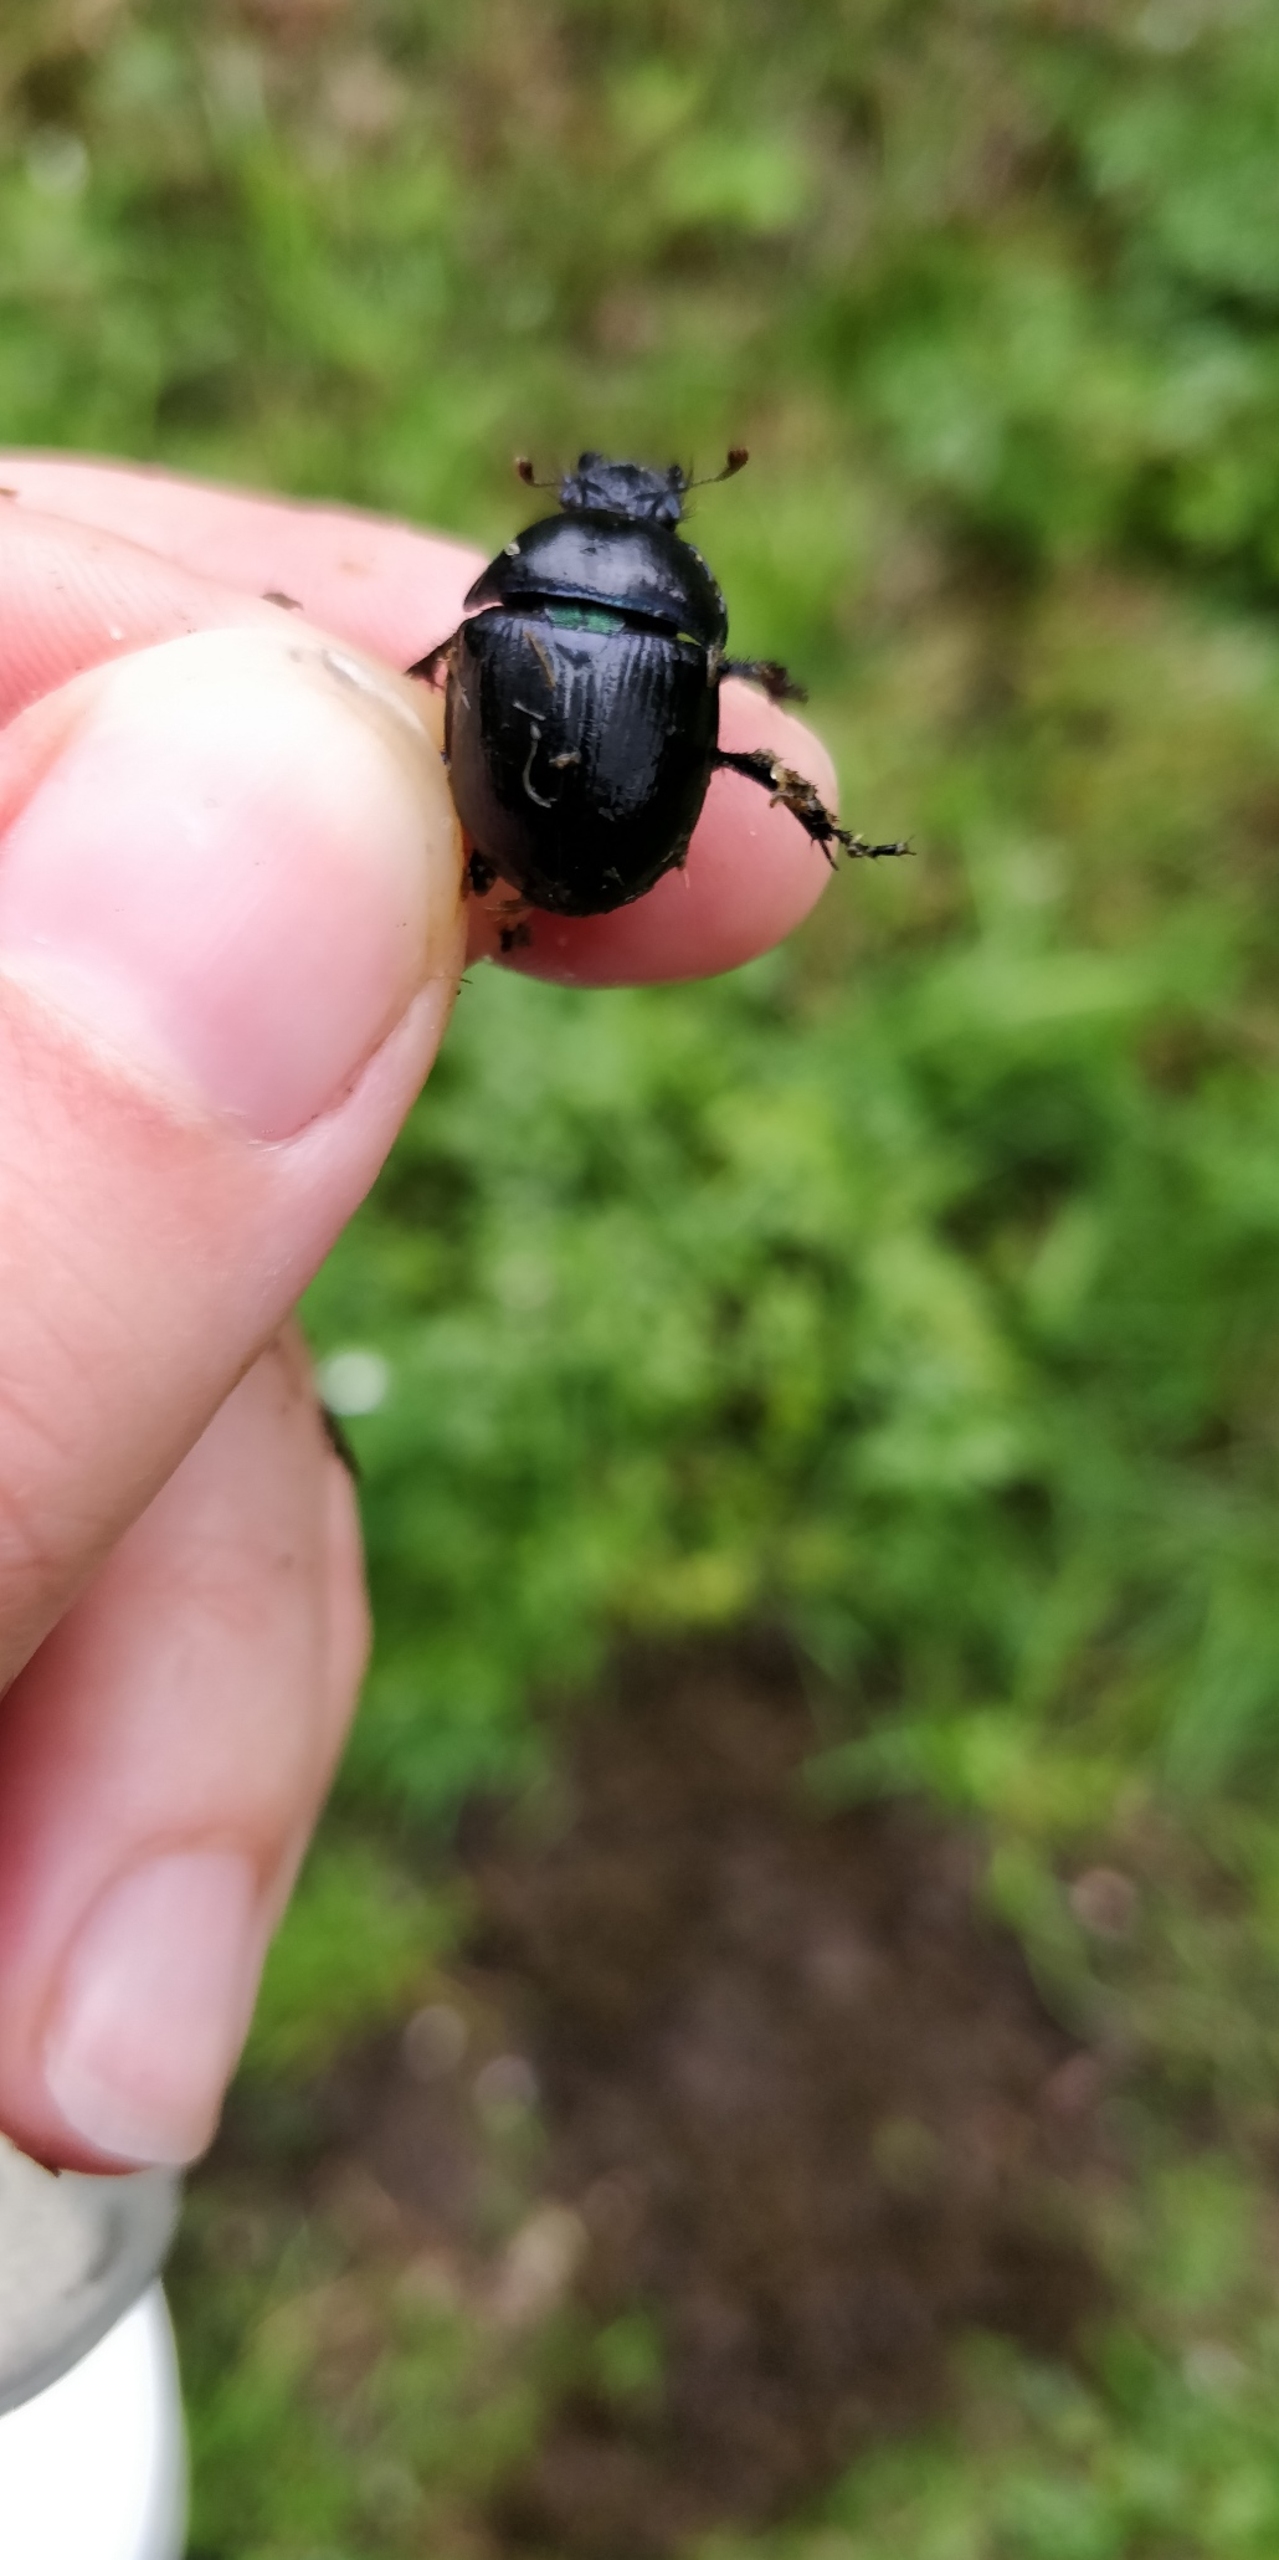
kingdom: Animalia
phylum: Arthropoda
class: Insecta
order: Coleoptera
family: Geotrupidae
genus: Anoplotrupes
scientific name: Anoplotrupes stercorosus
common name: Skovskarnbasse
